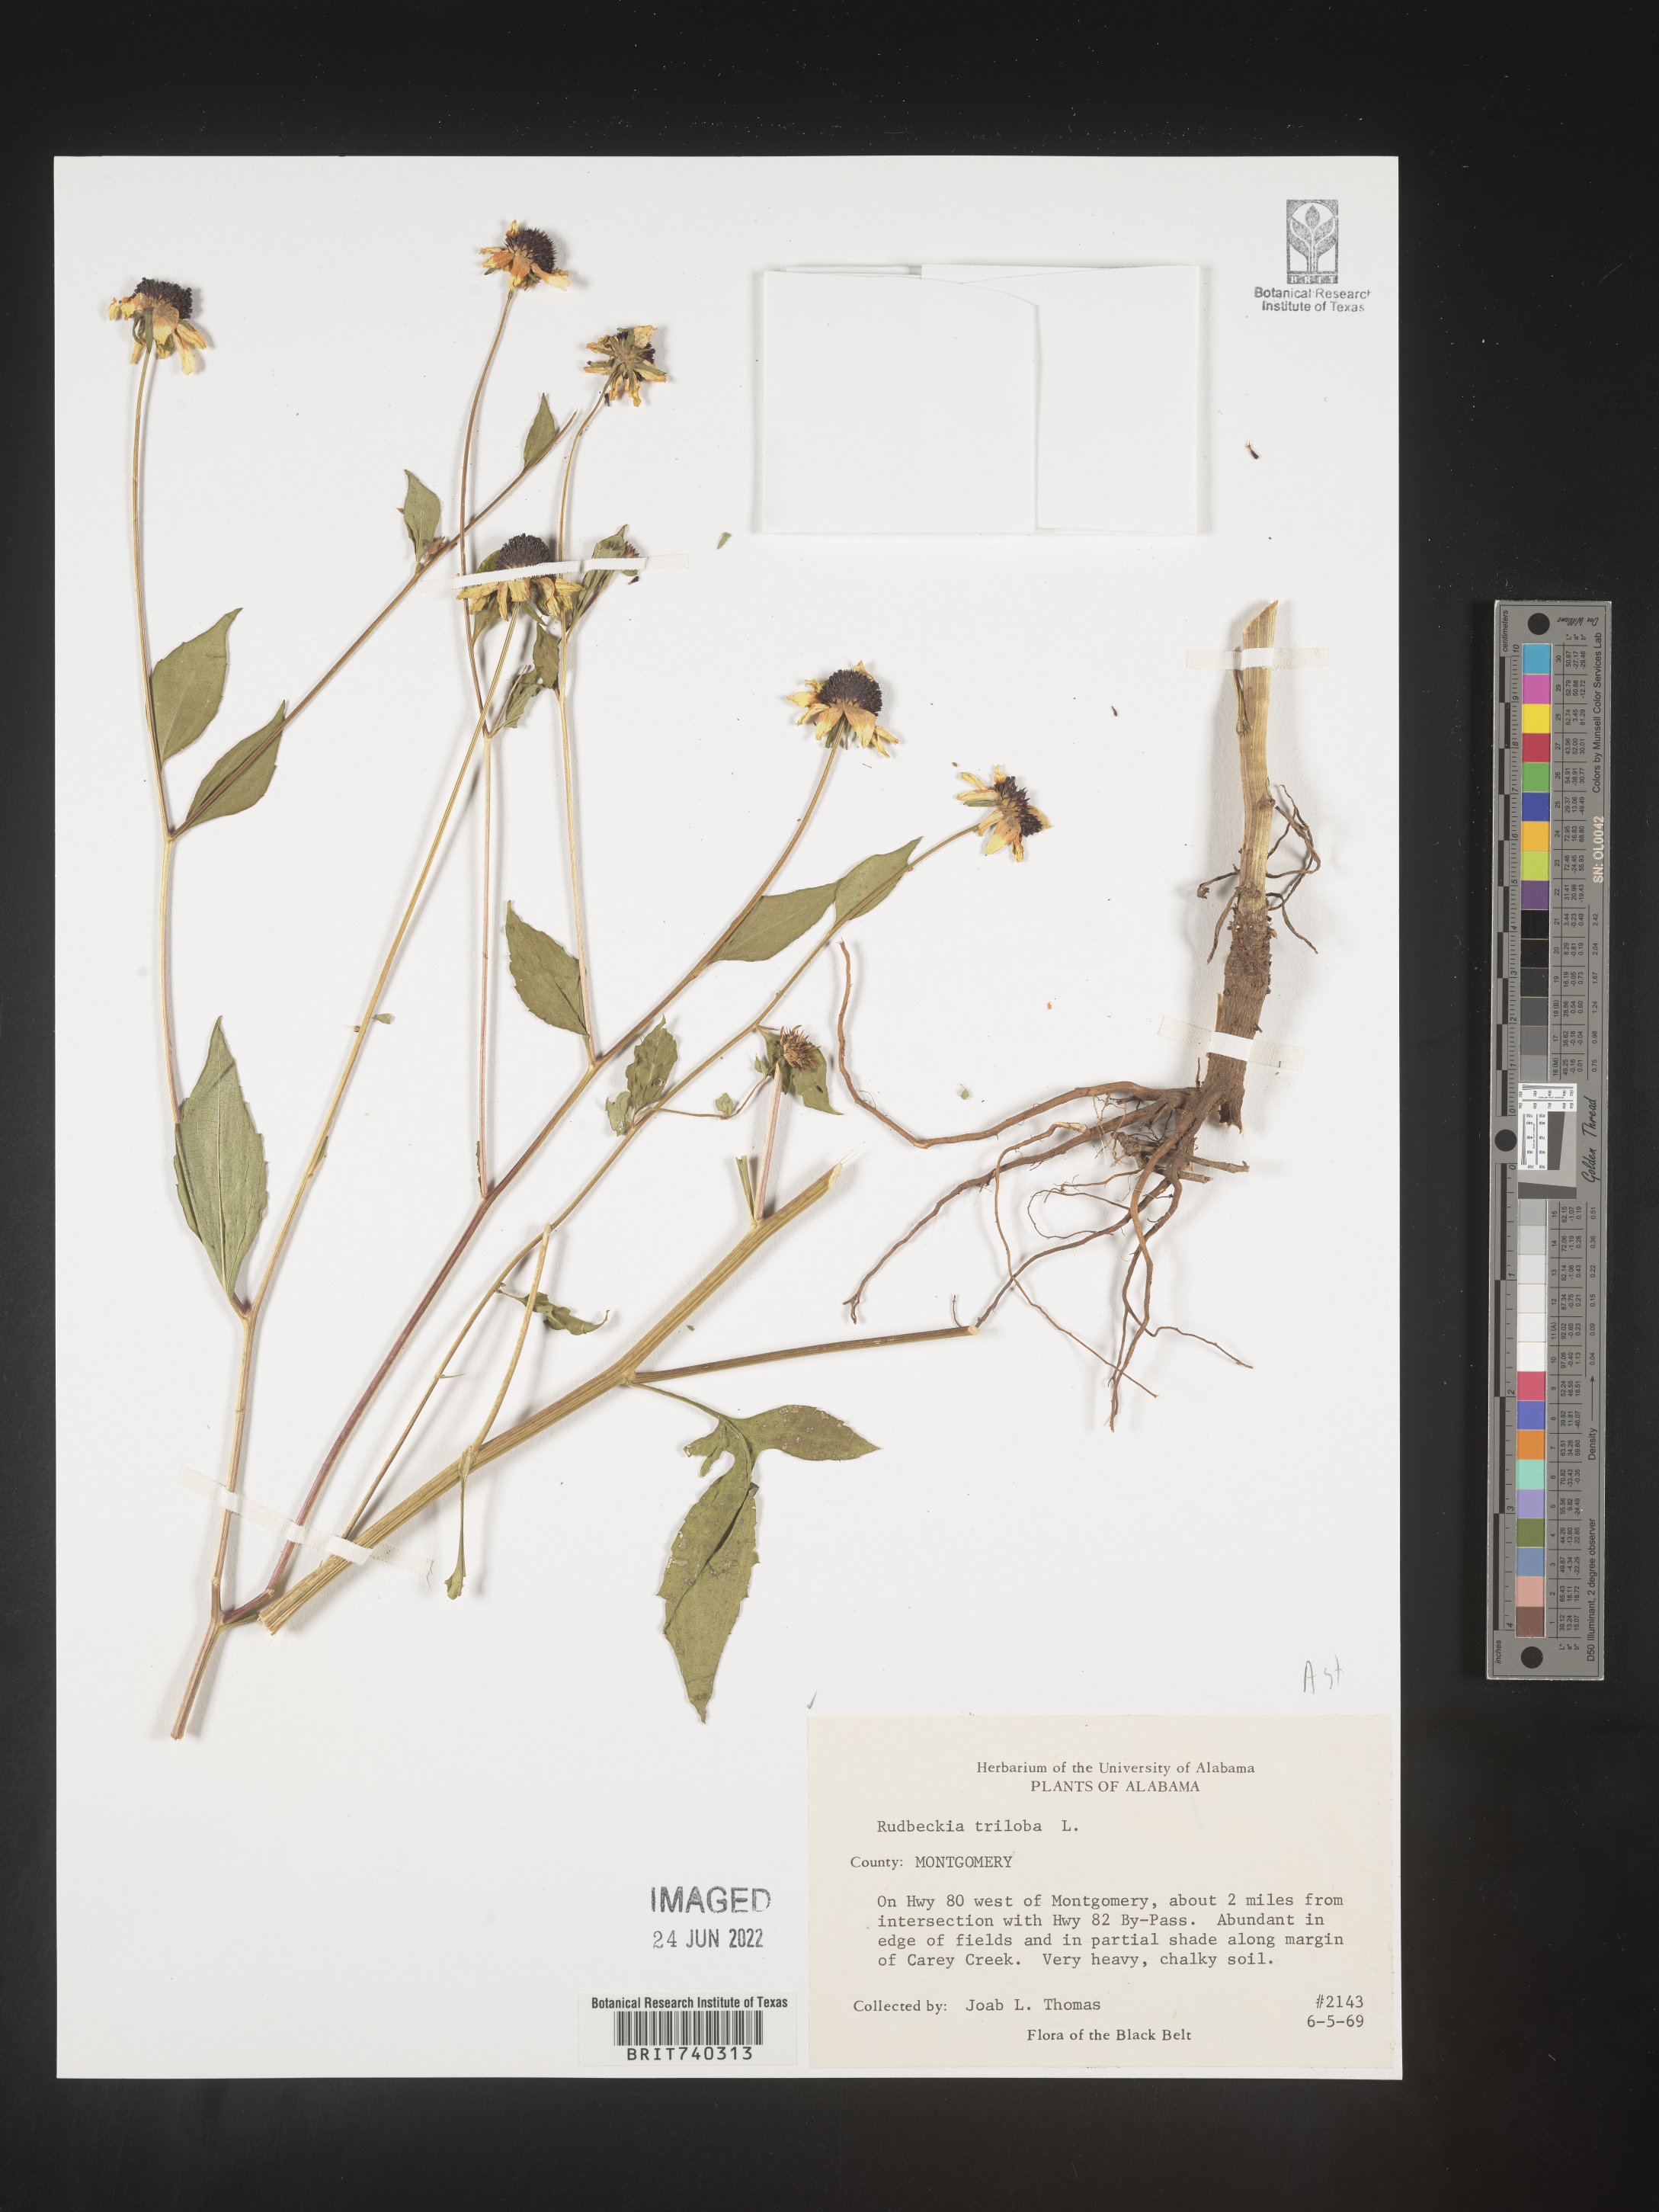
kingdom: Plantae
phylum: Tracheophyta
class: Magnoliopsida
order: Asterales
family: Asteraceae
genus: Rudbeckia
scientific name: Rudbeckia triloba
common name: Thin-leaved coneflower
